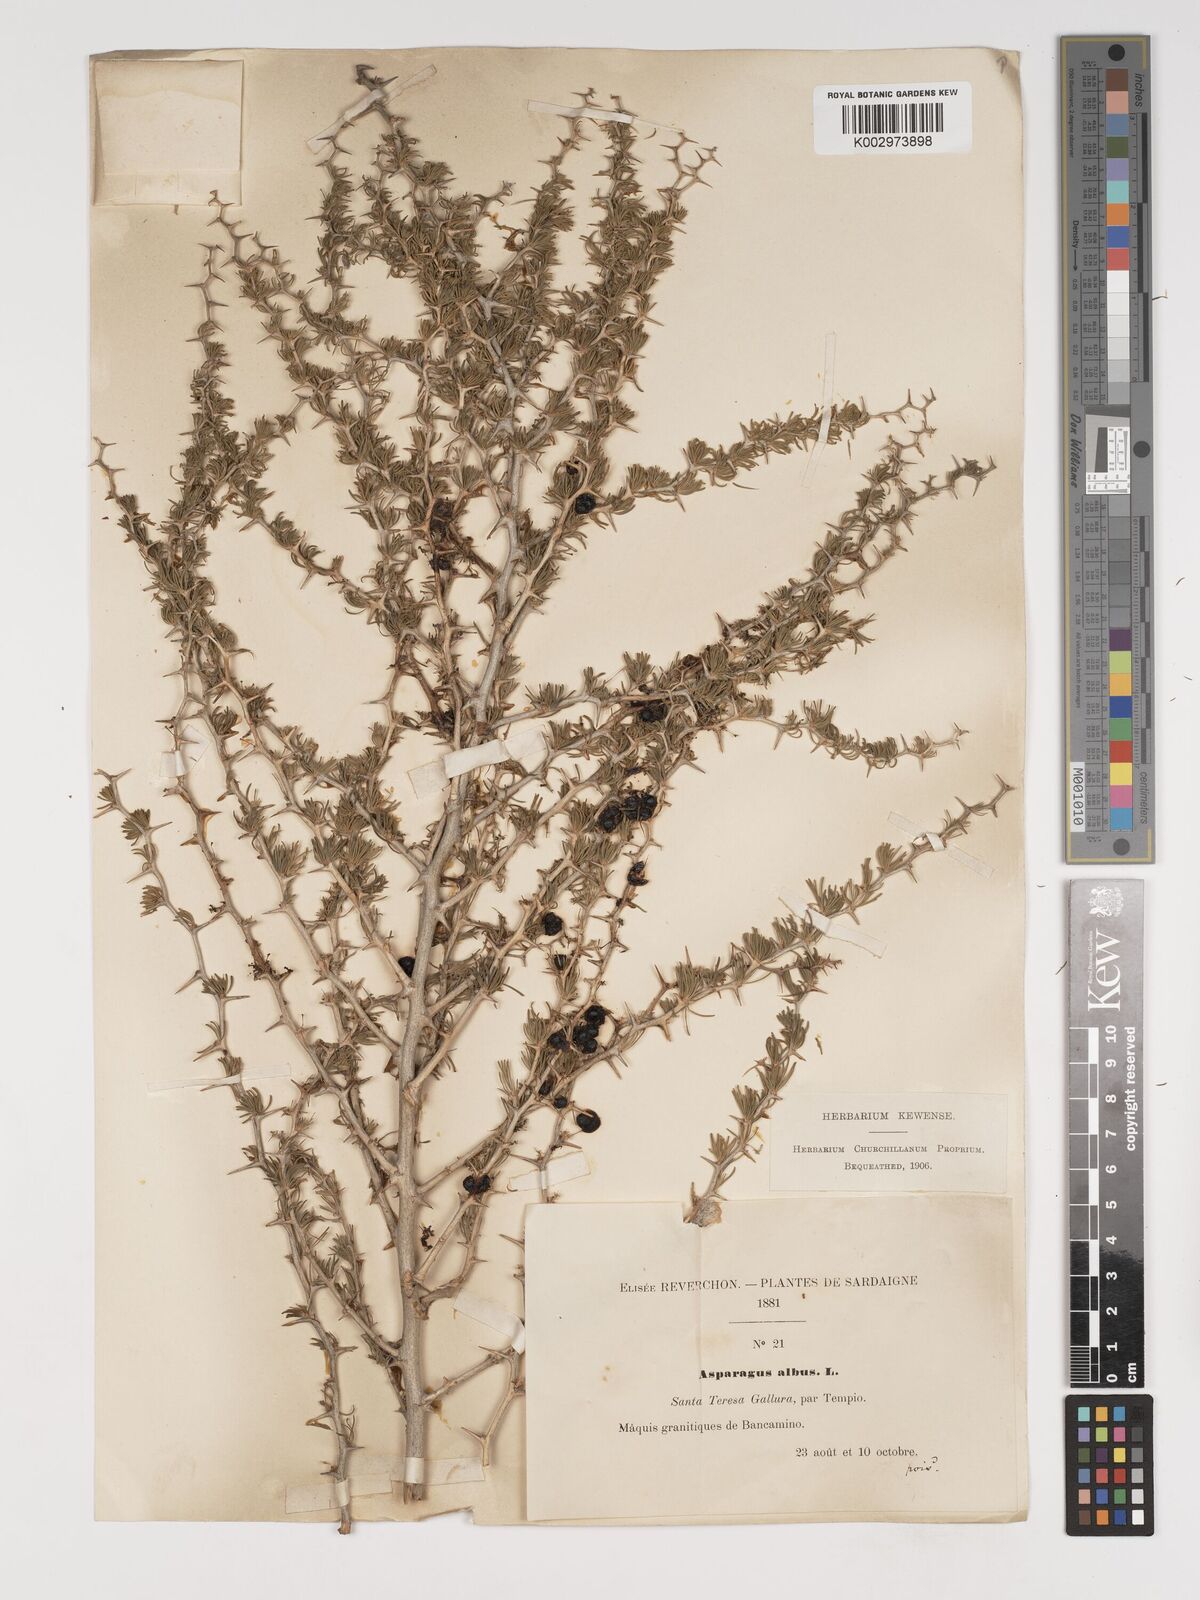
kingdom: Plantae
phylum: Tracheophyta
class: Liliopsida
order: Asparagales
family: Asparagaceae
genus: Asparagus
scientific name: Asparagus albus
